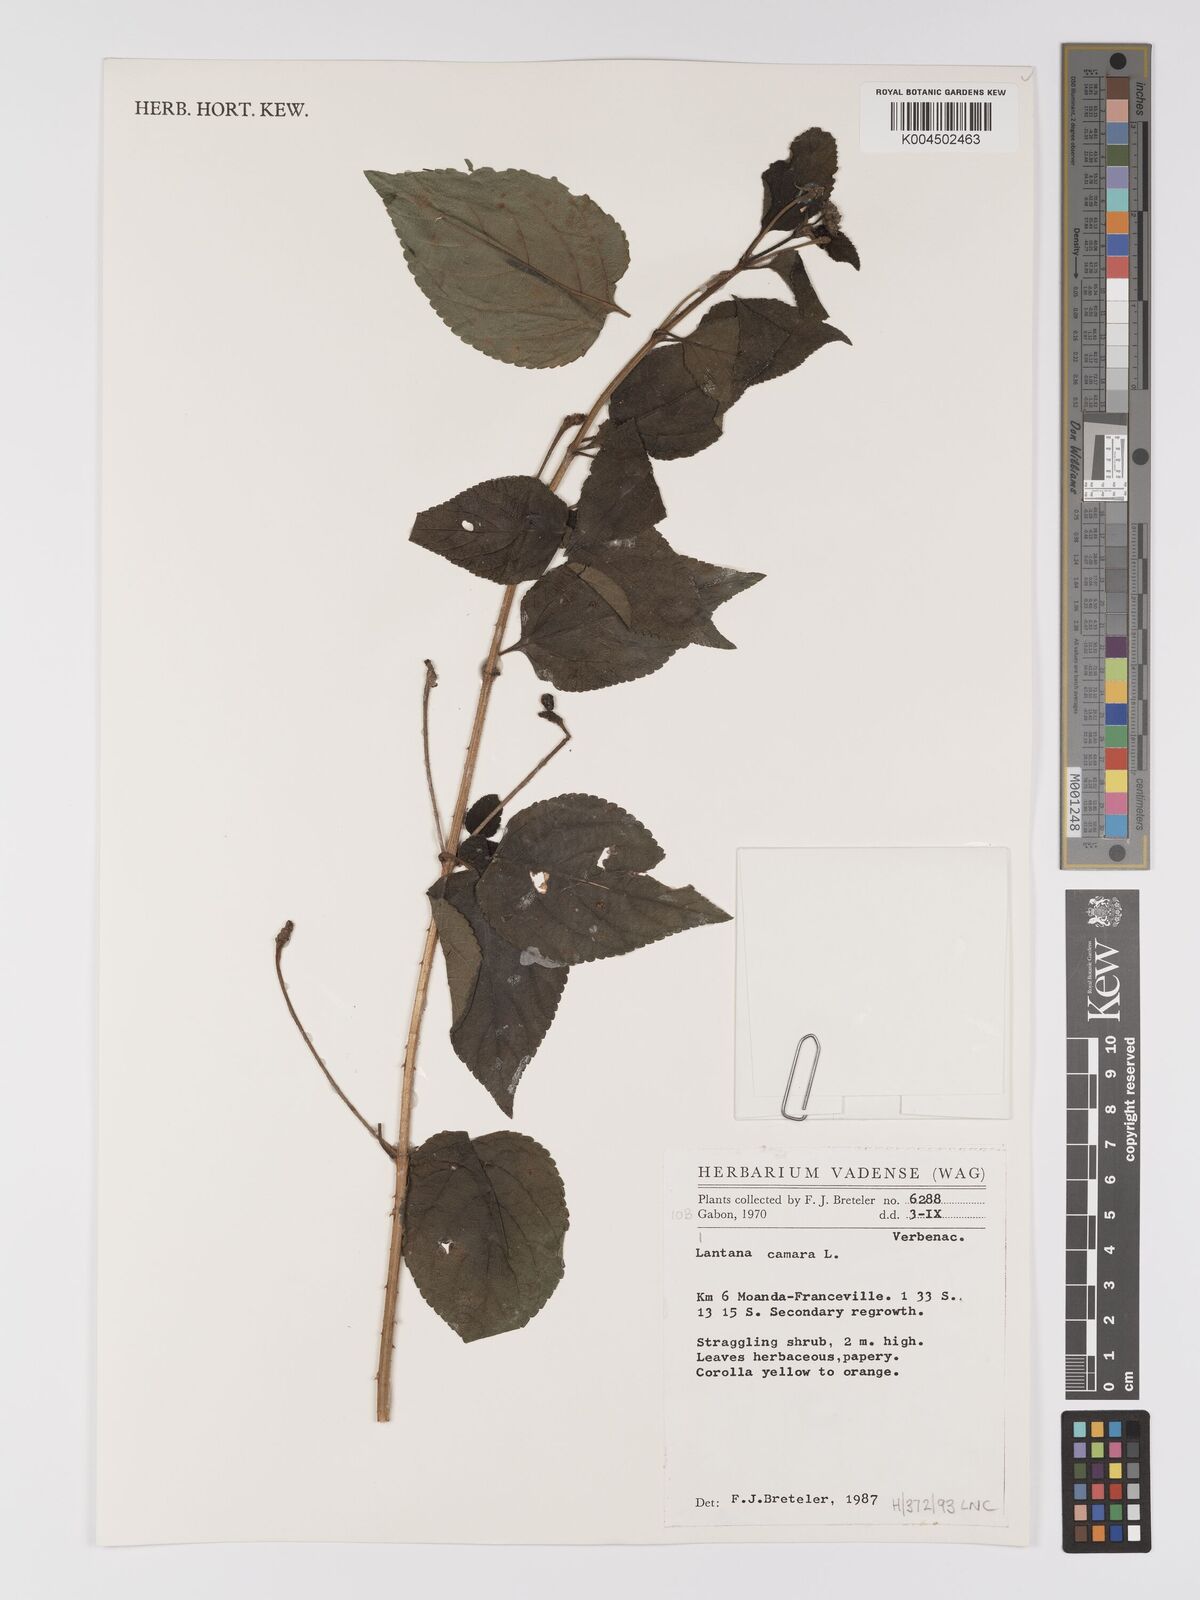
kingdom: Plantae
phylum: Tracheophyta
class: Magnoliopsida
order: Lamiales
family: Verbenaceae
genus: Lantana
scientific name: Lantana camara
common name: Lantana
